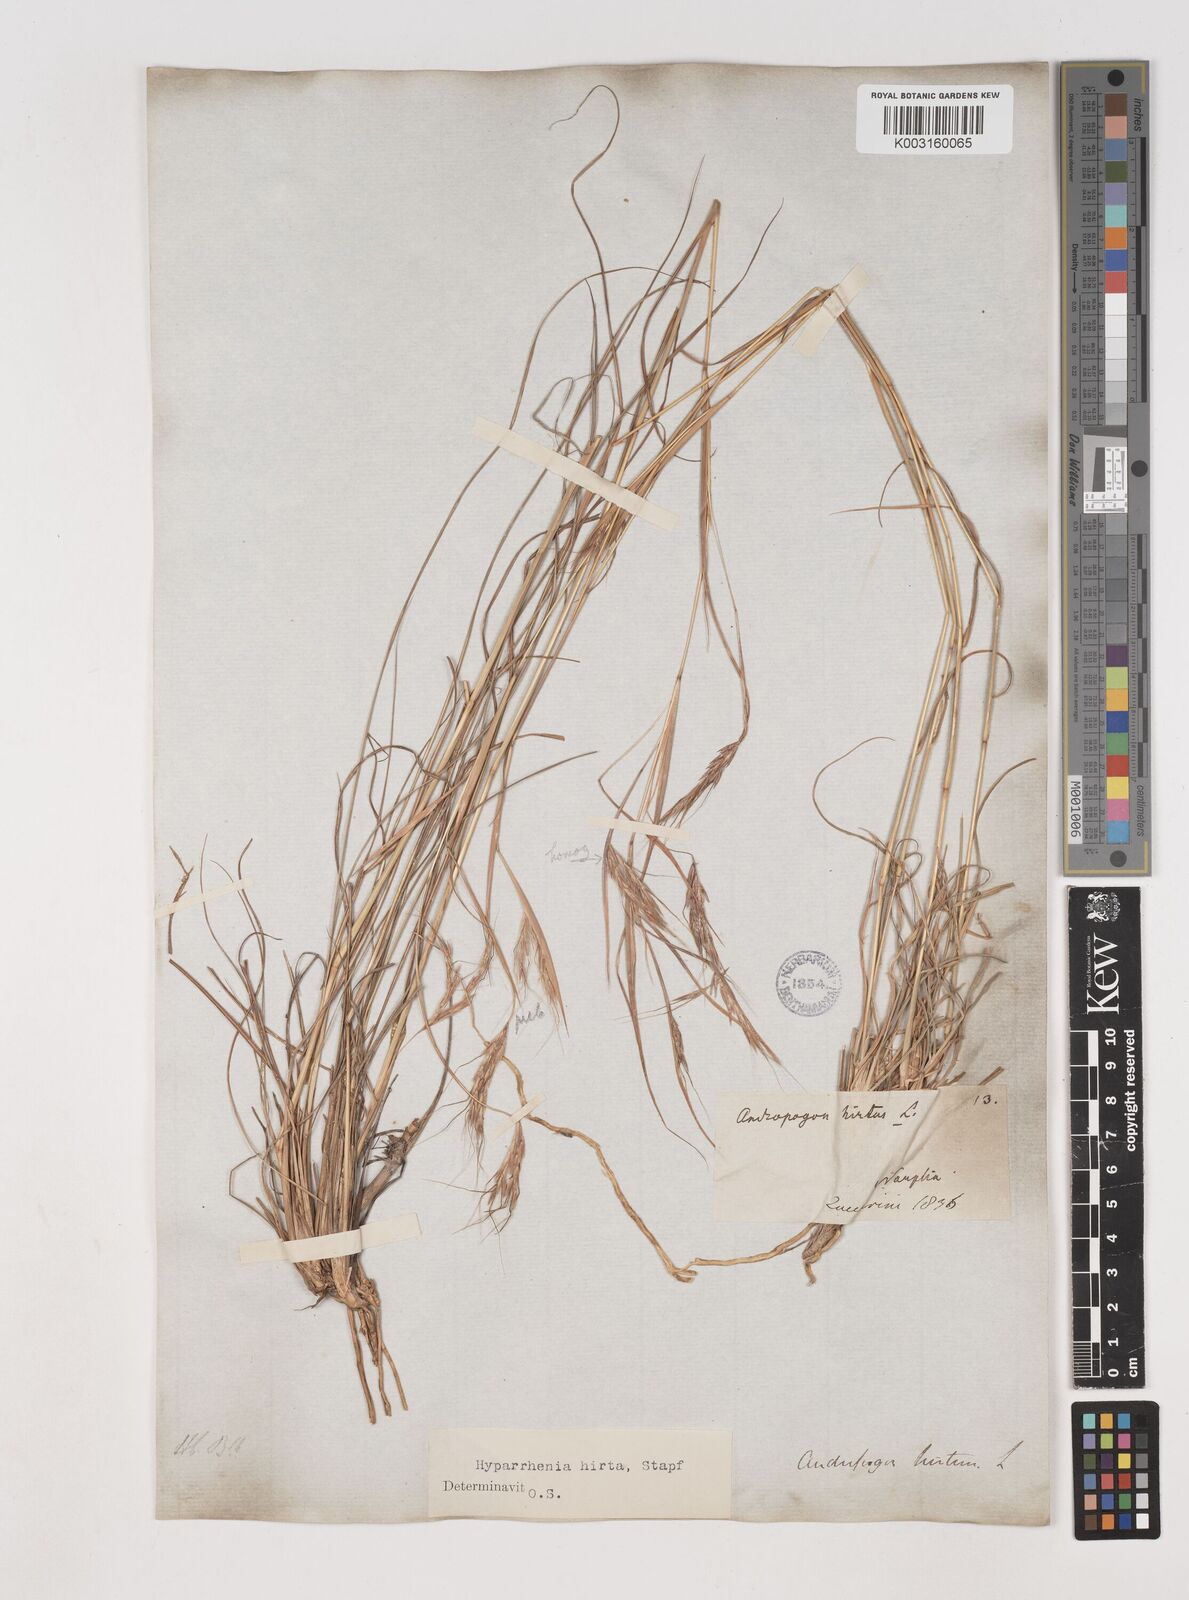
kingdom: Plantae
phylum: Tracheophyta
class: Liliopsida
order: Poales
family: Poaceae
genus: Hyparrhenia
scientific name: Hyparrhenia hirta
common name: Thatching grass
